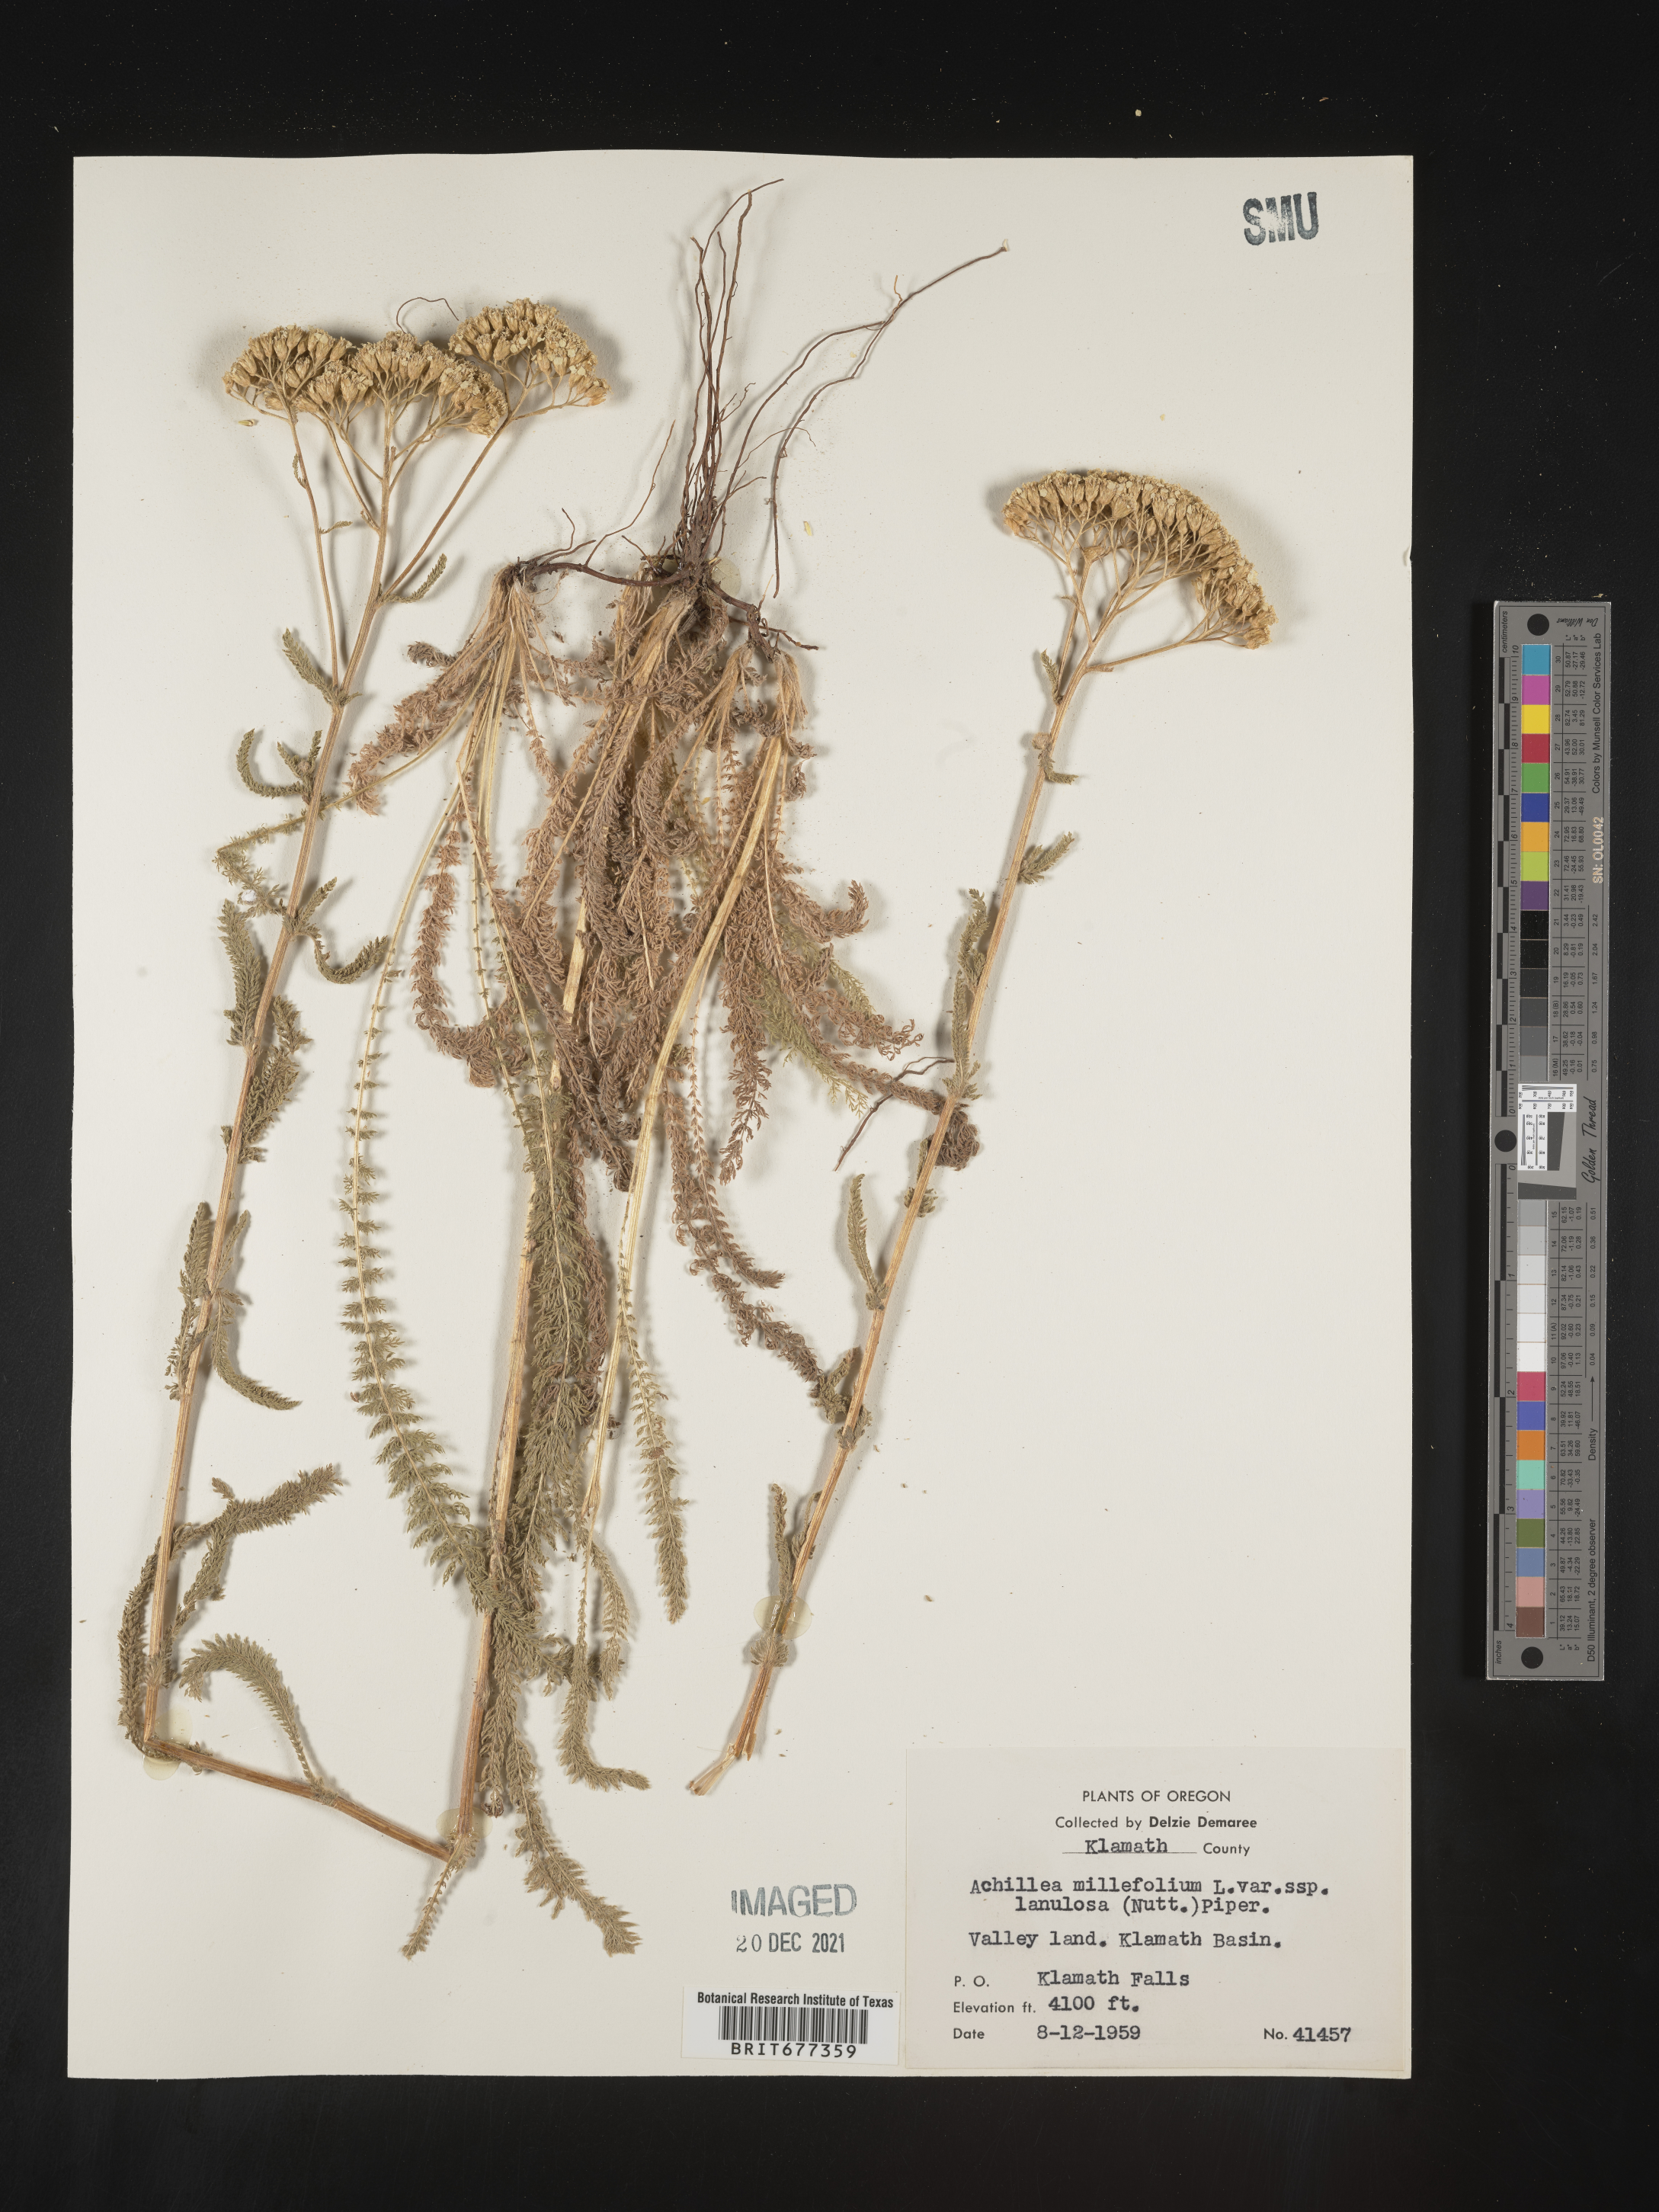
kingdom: Plantae
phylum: Tracheophyta
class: Magnoliopsida
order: Asterales
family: Asteraceae
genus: Achillea
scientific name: Achillea millefolium
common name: Yarrow
